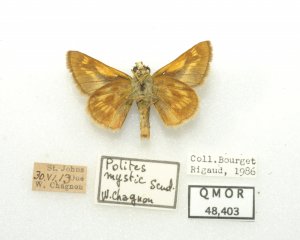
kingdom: Animalia
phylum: Arthropoda
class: Insecta
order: Lepidoptera
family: Hesperiidae
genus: Polites
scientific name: Polites
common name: Long Dash Skipper
